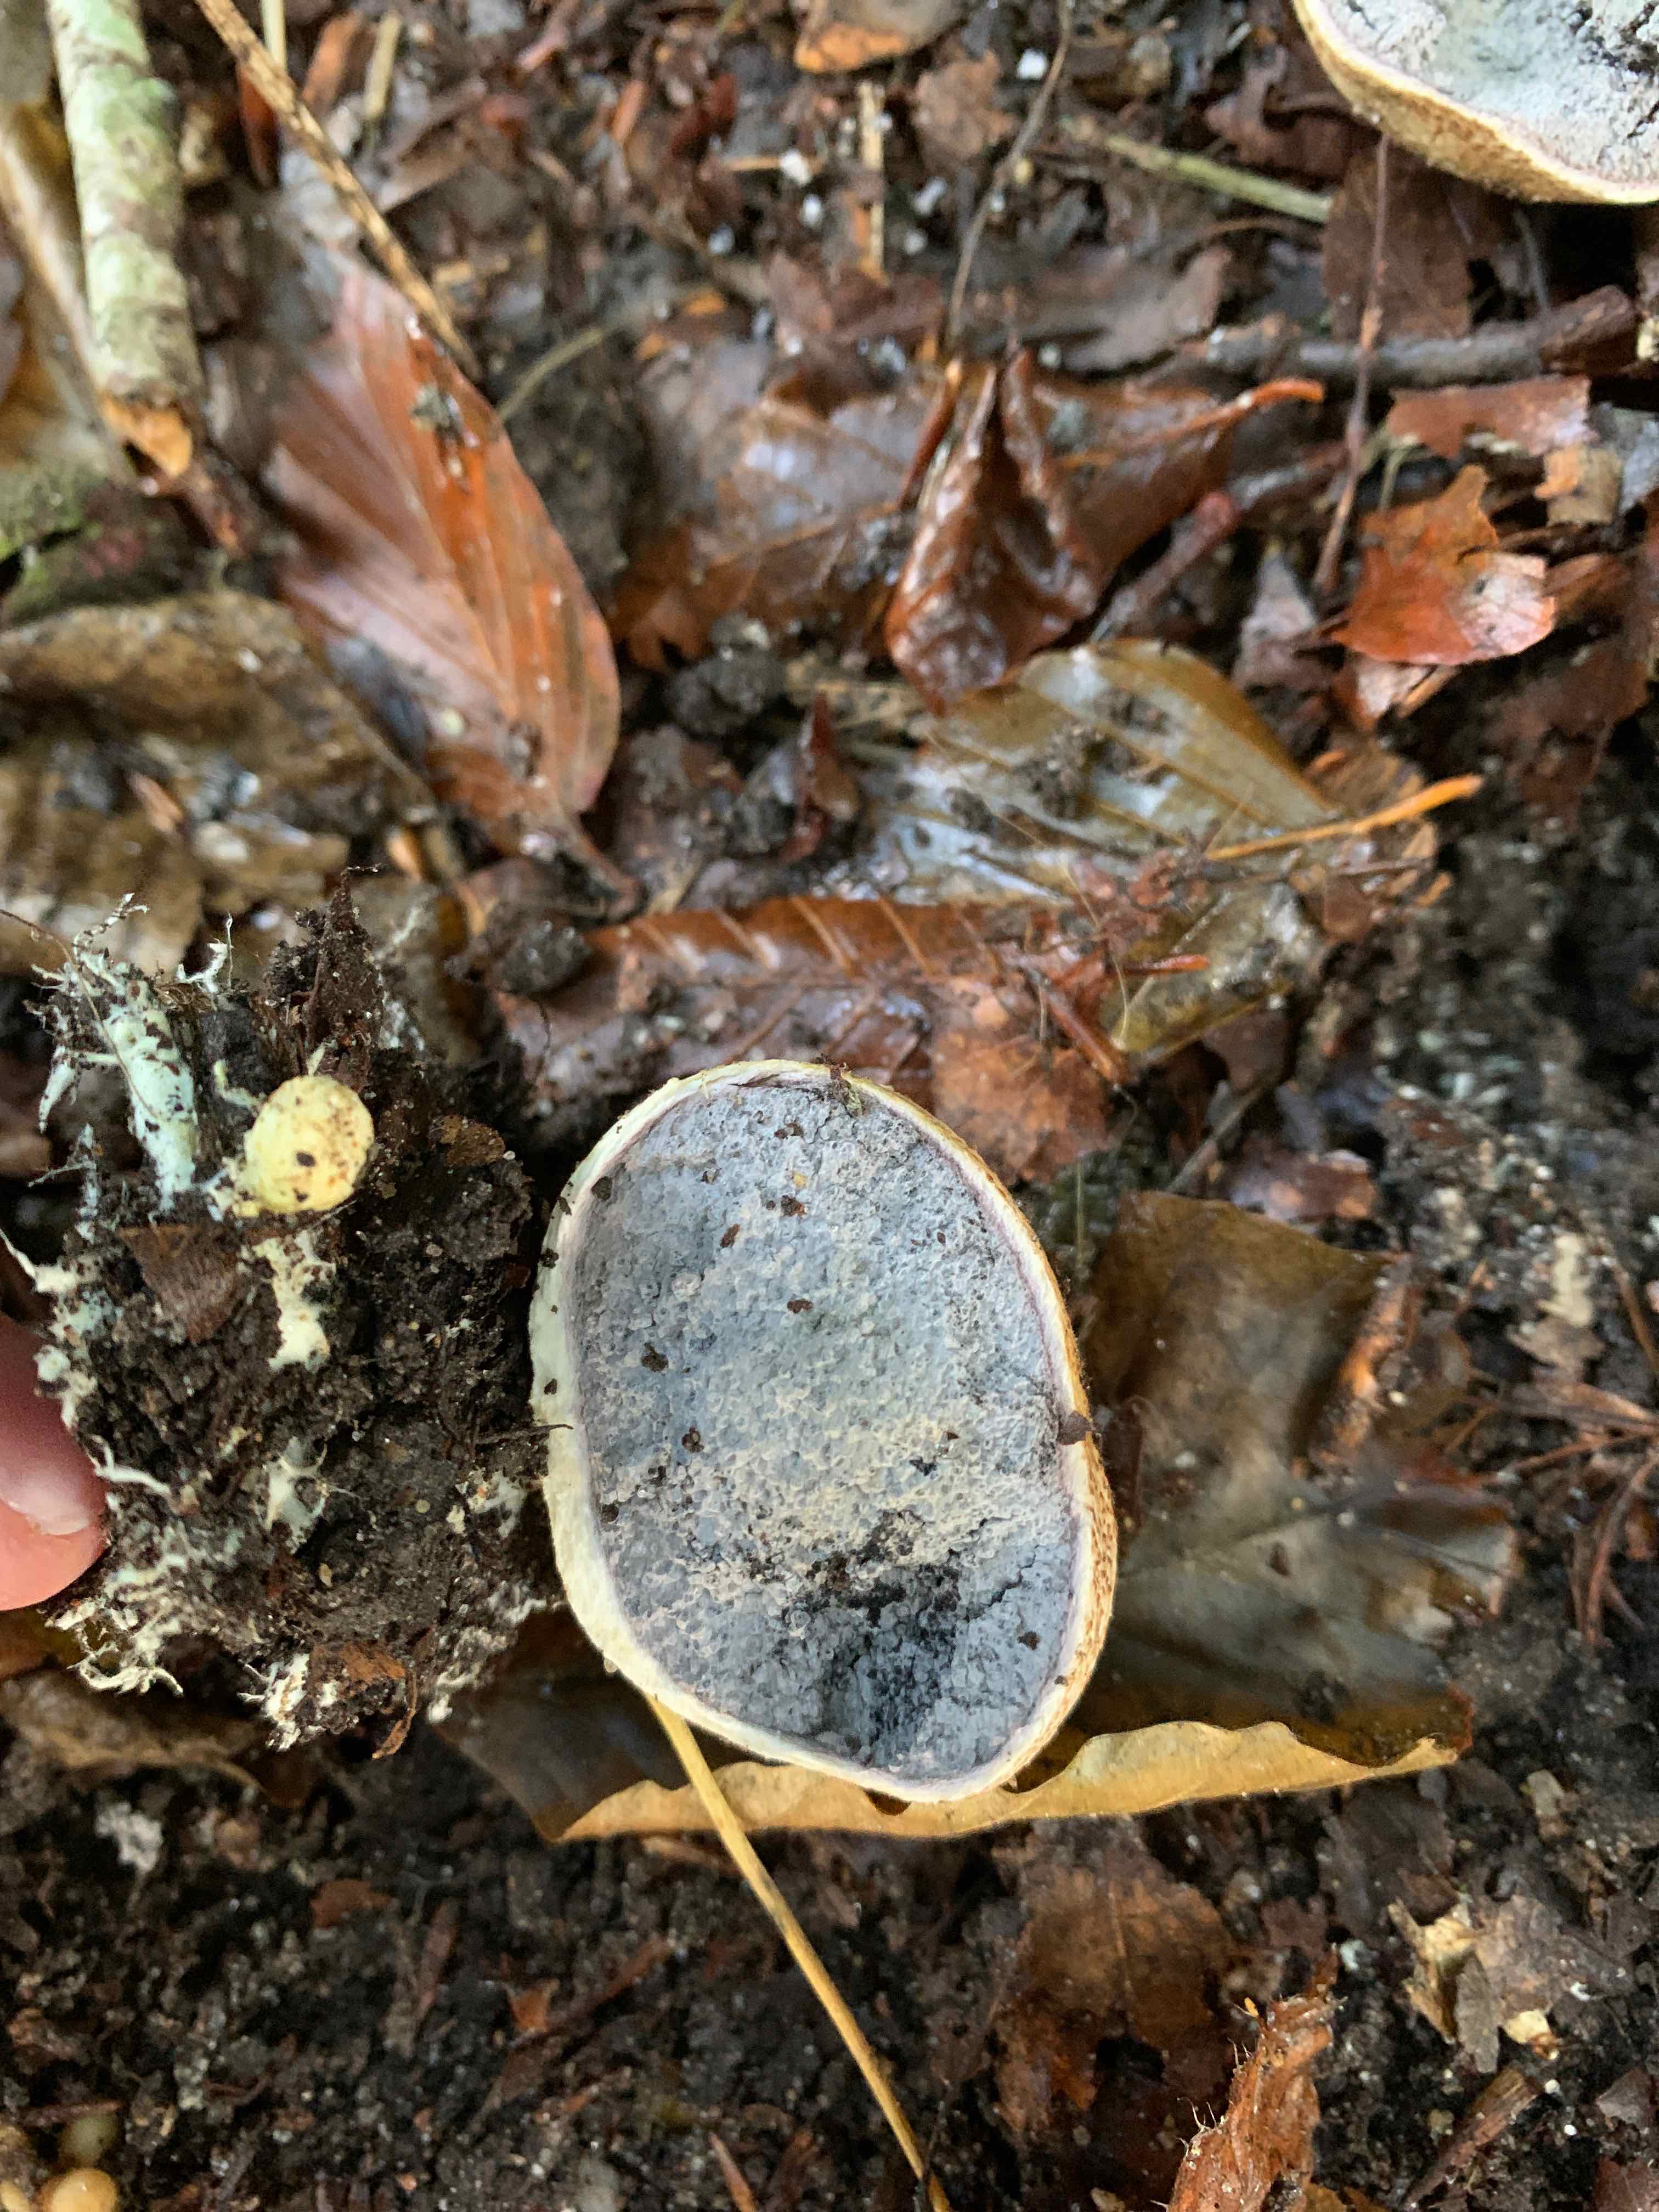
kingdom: Fungi
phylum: Basidiomycota
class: Agaricomycetes
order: Boletales
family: Sclerodermataceae
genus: Scleroderma
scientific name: Scleroderma citrinum
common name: almindelig bruskbold
